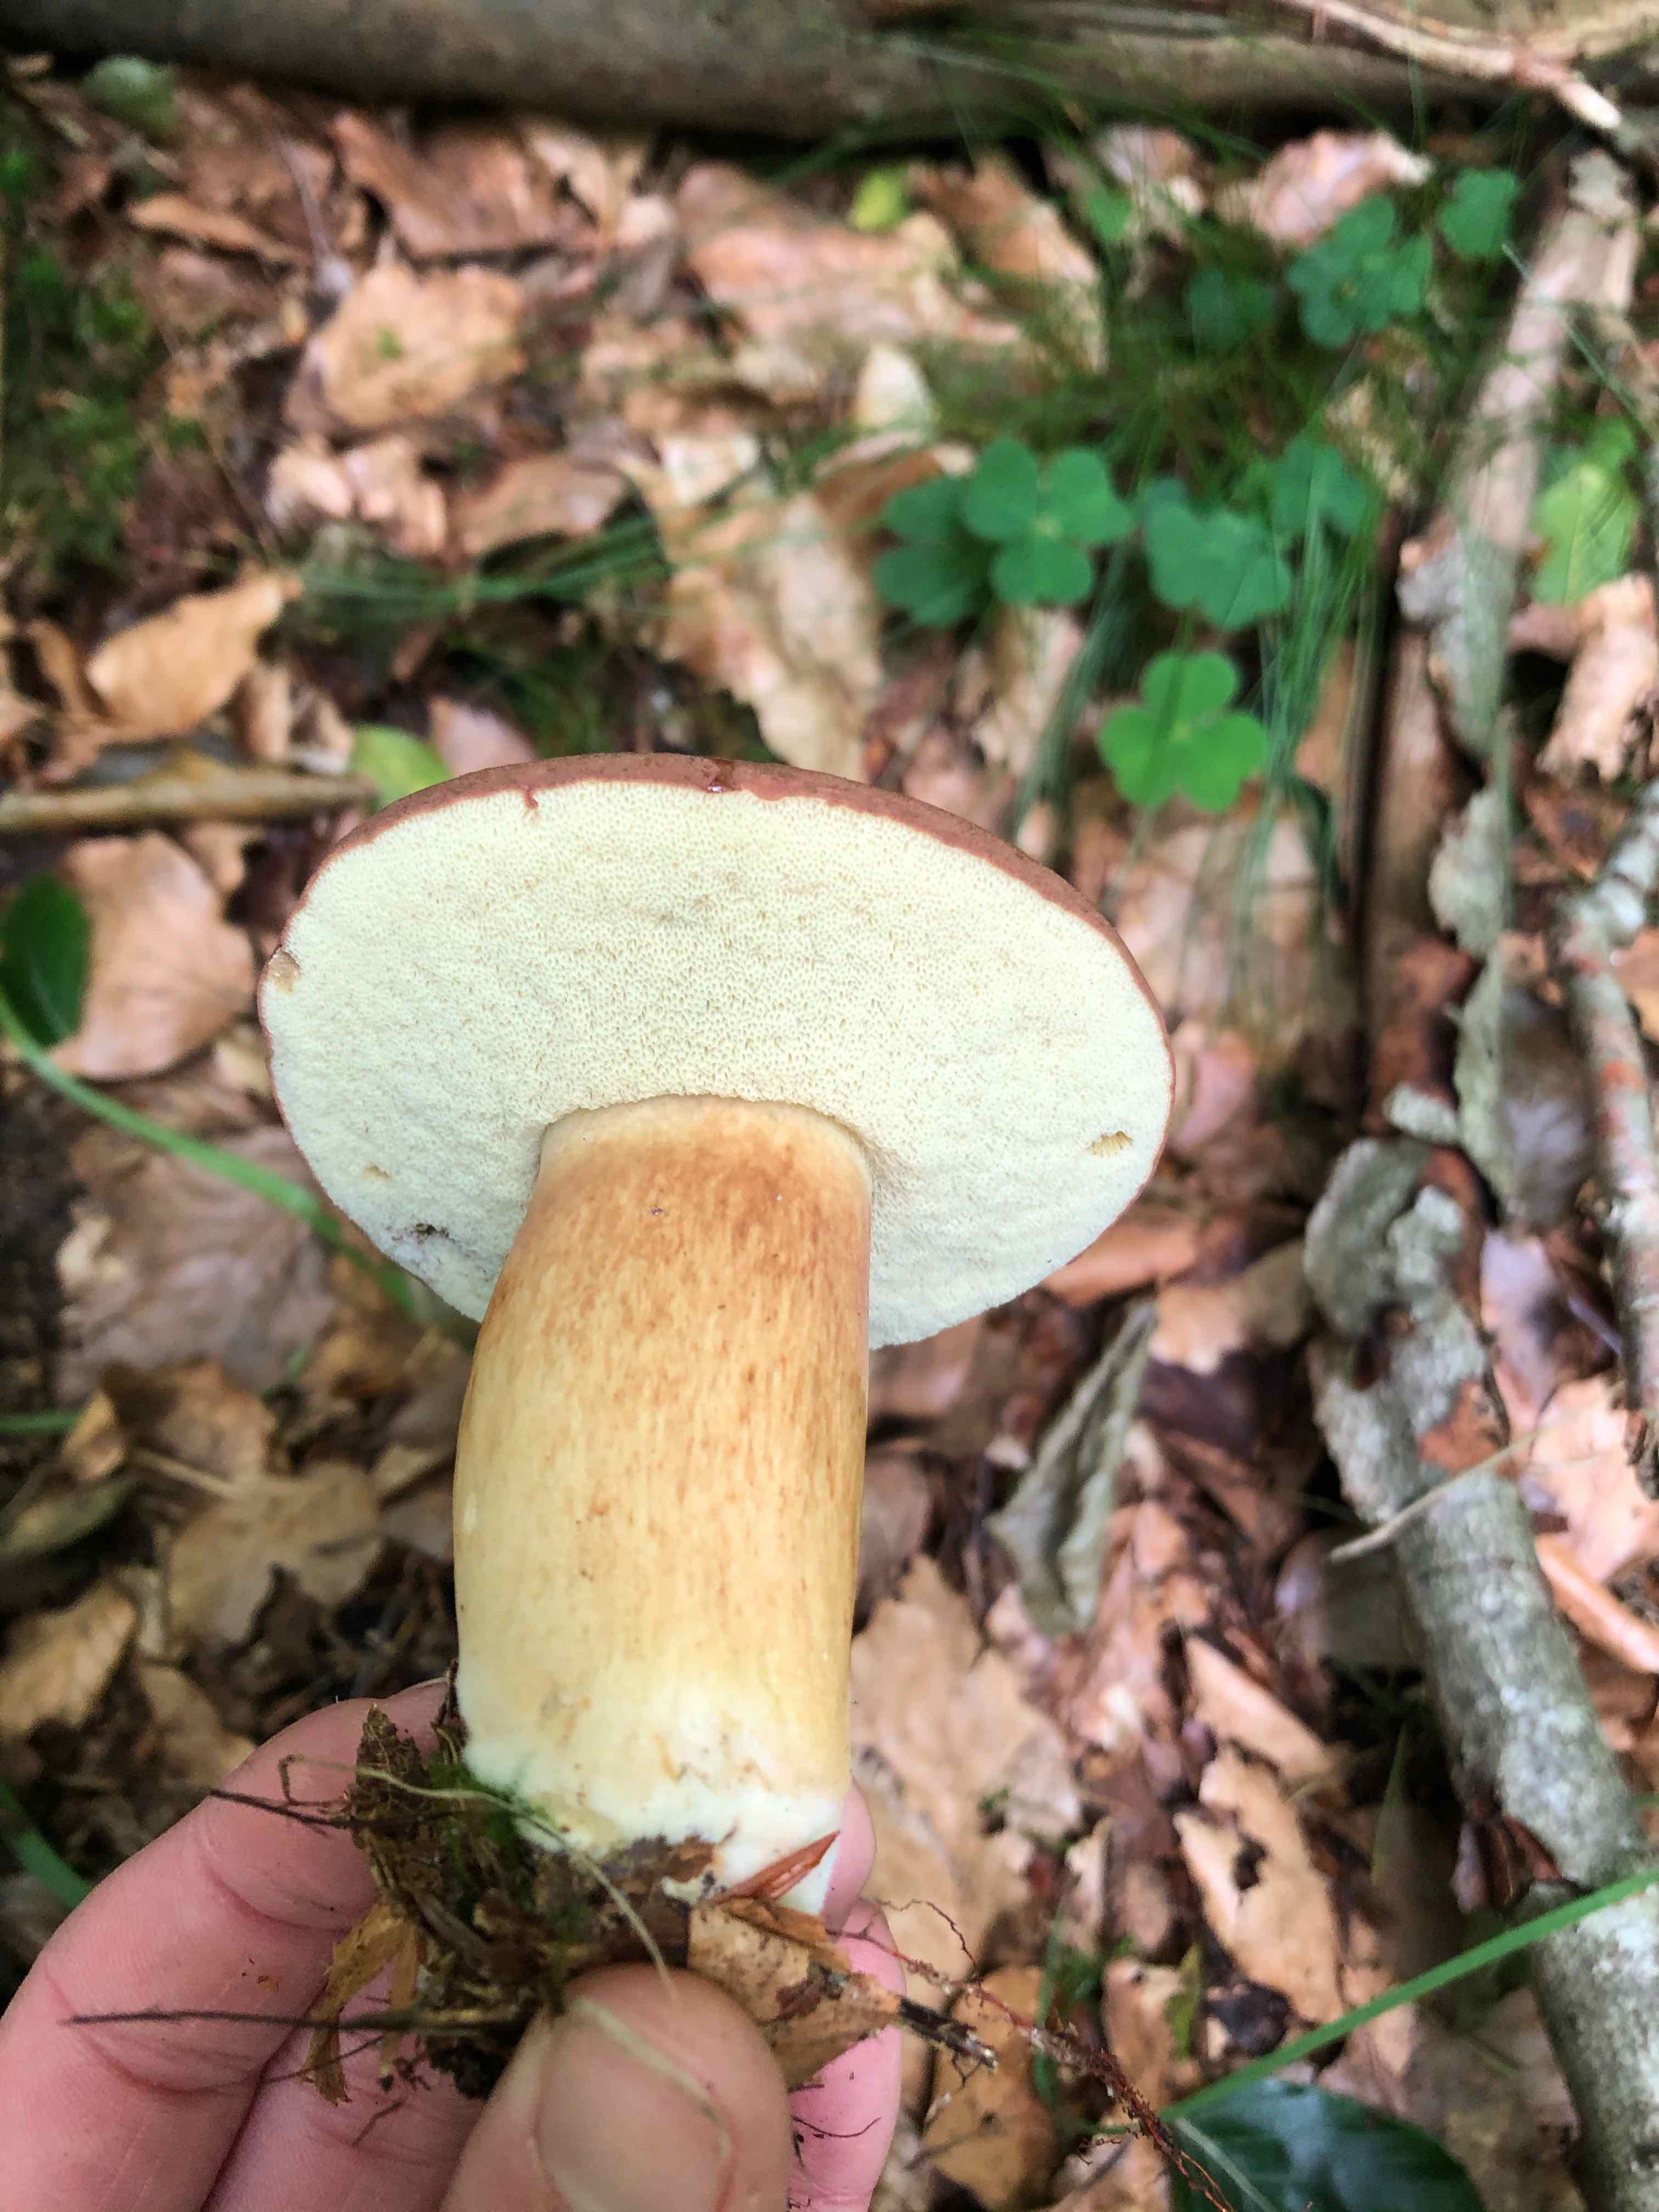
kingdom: Fungi
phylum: Basidiomycota
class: Agaricomycetes
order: Boletales
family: Boletaceae
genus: Imleria
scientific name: Imleria badia
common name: brunstokket rørhat
